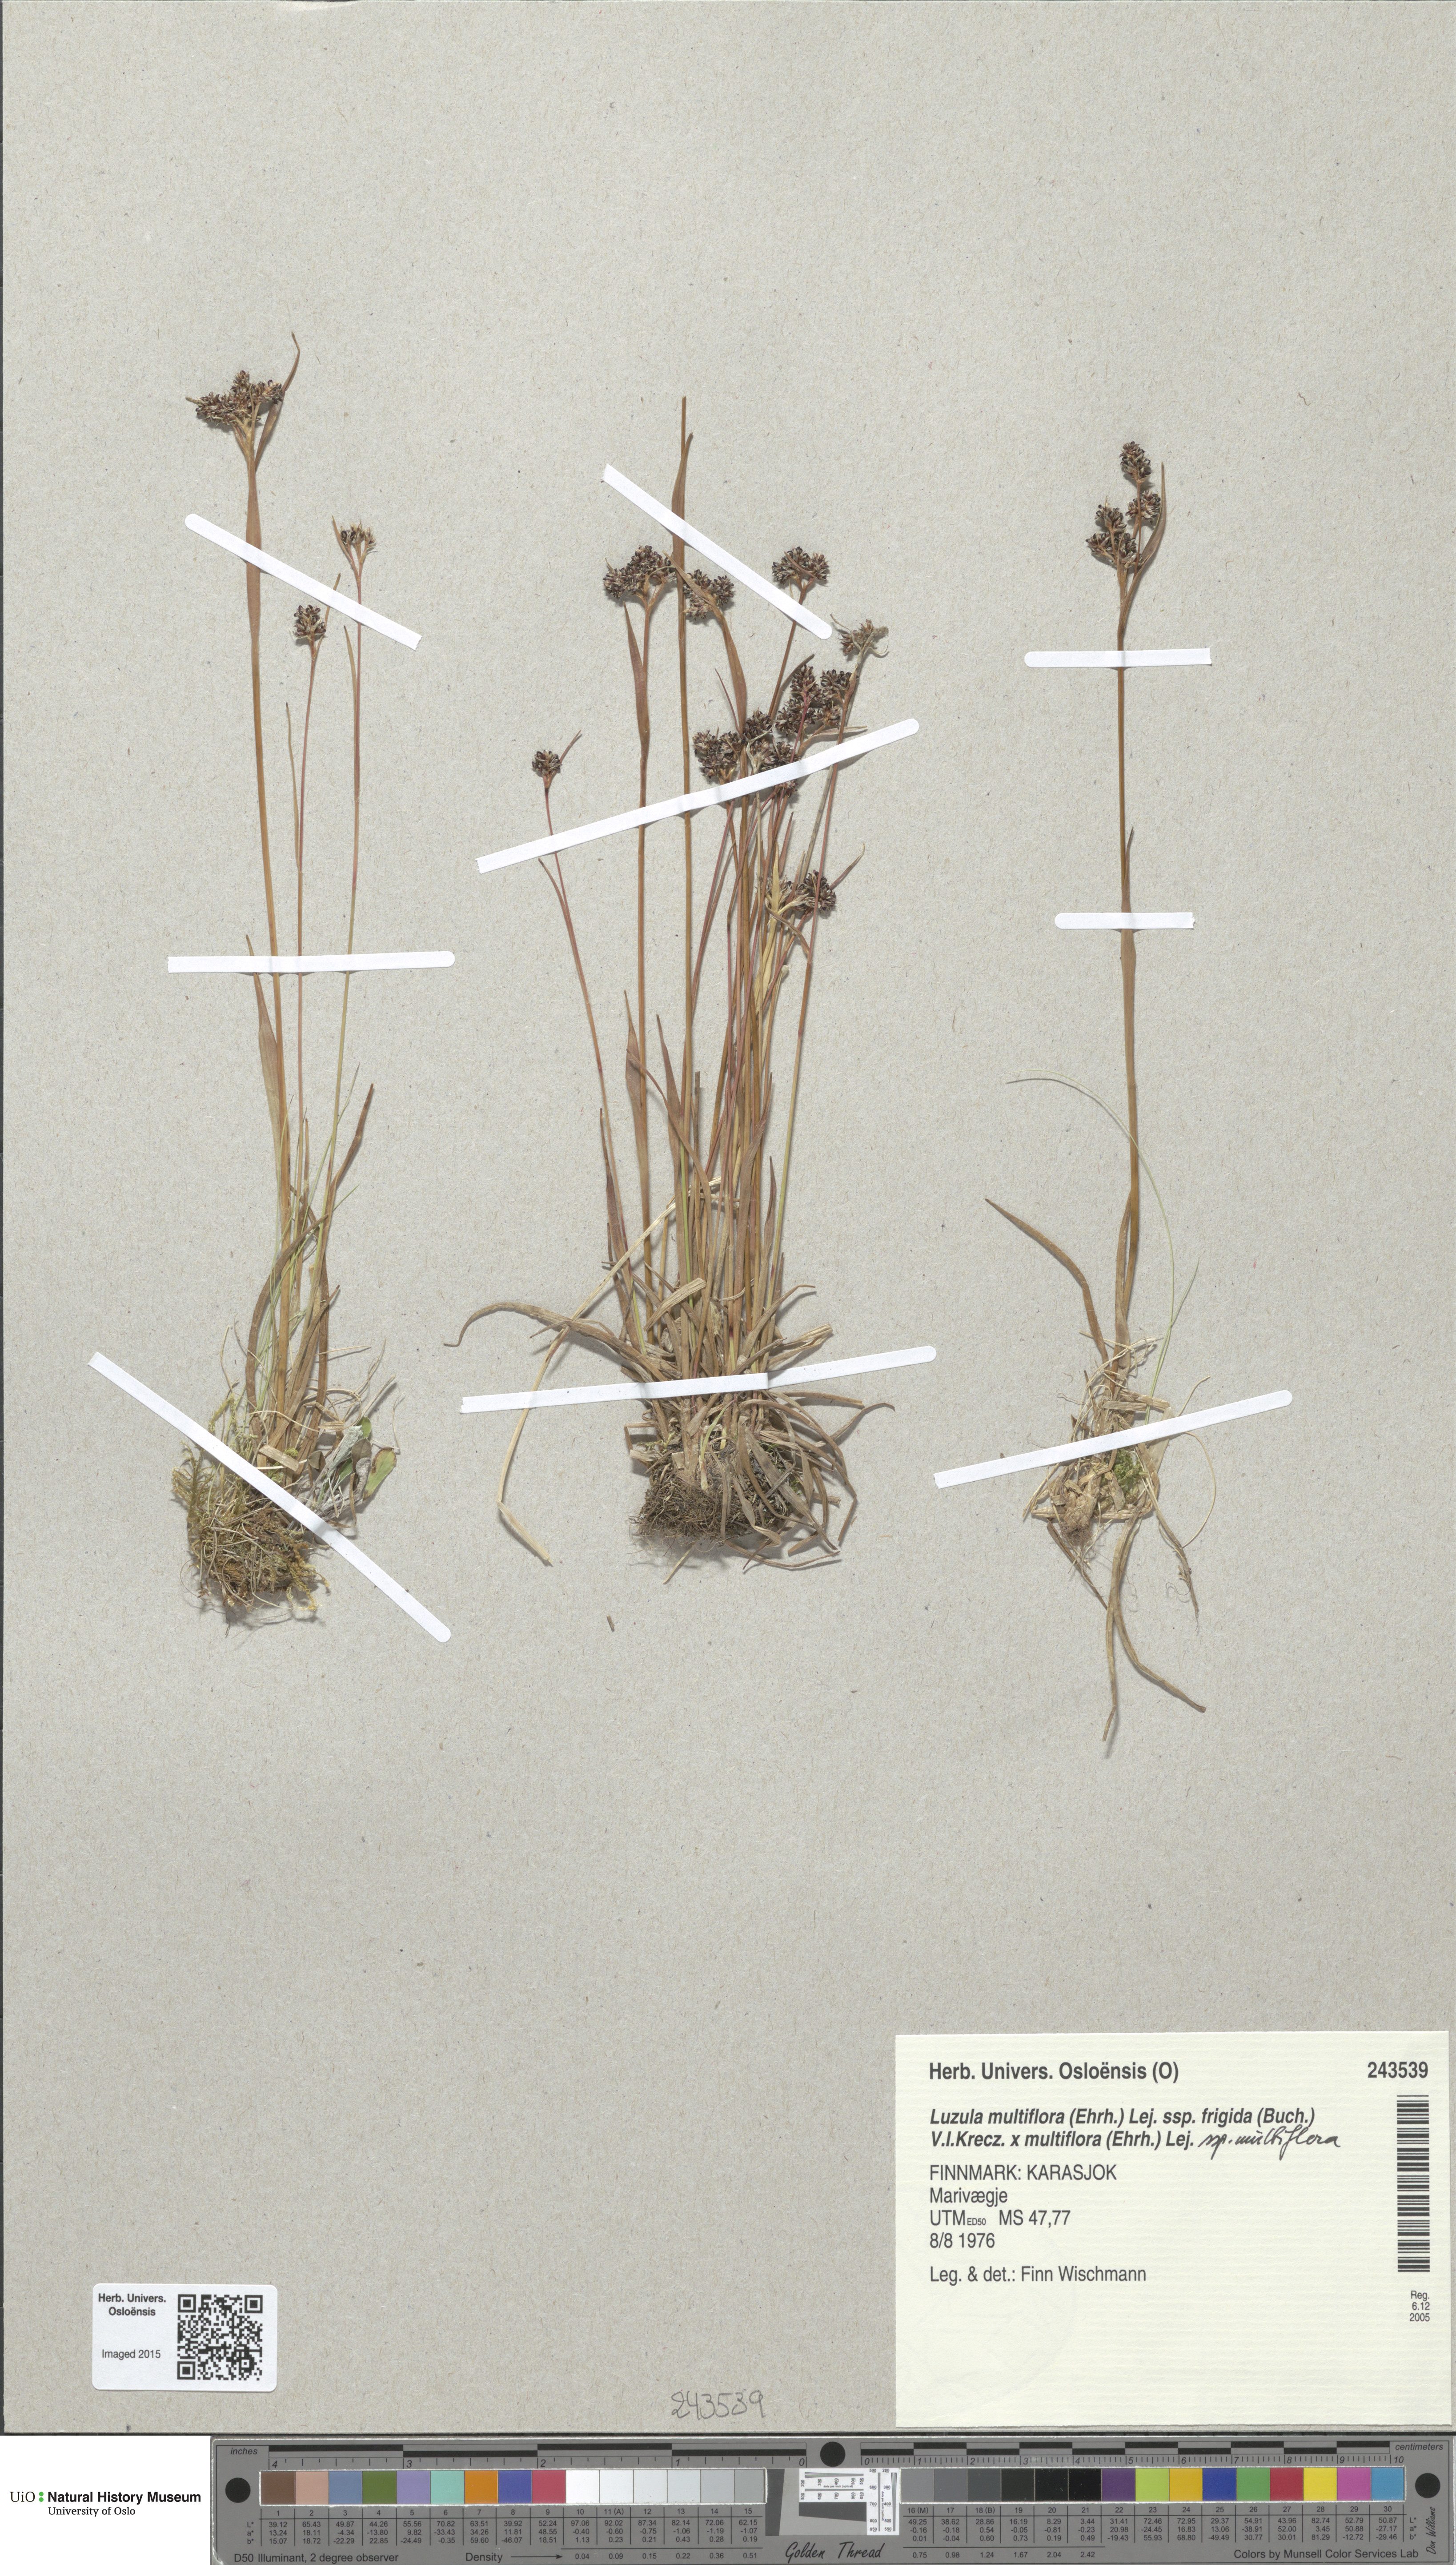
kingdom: Plantae
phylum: Tracheophyta
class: Liliopsida
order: Poales
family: Juncaceae
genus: Luzula
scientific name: Luzula
